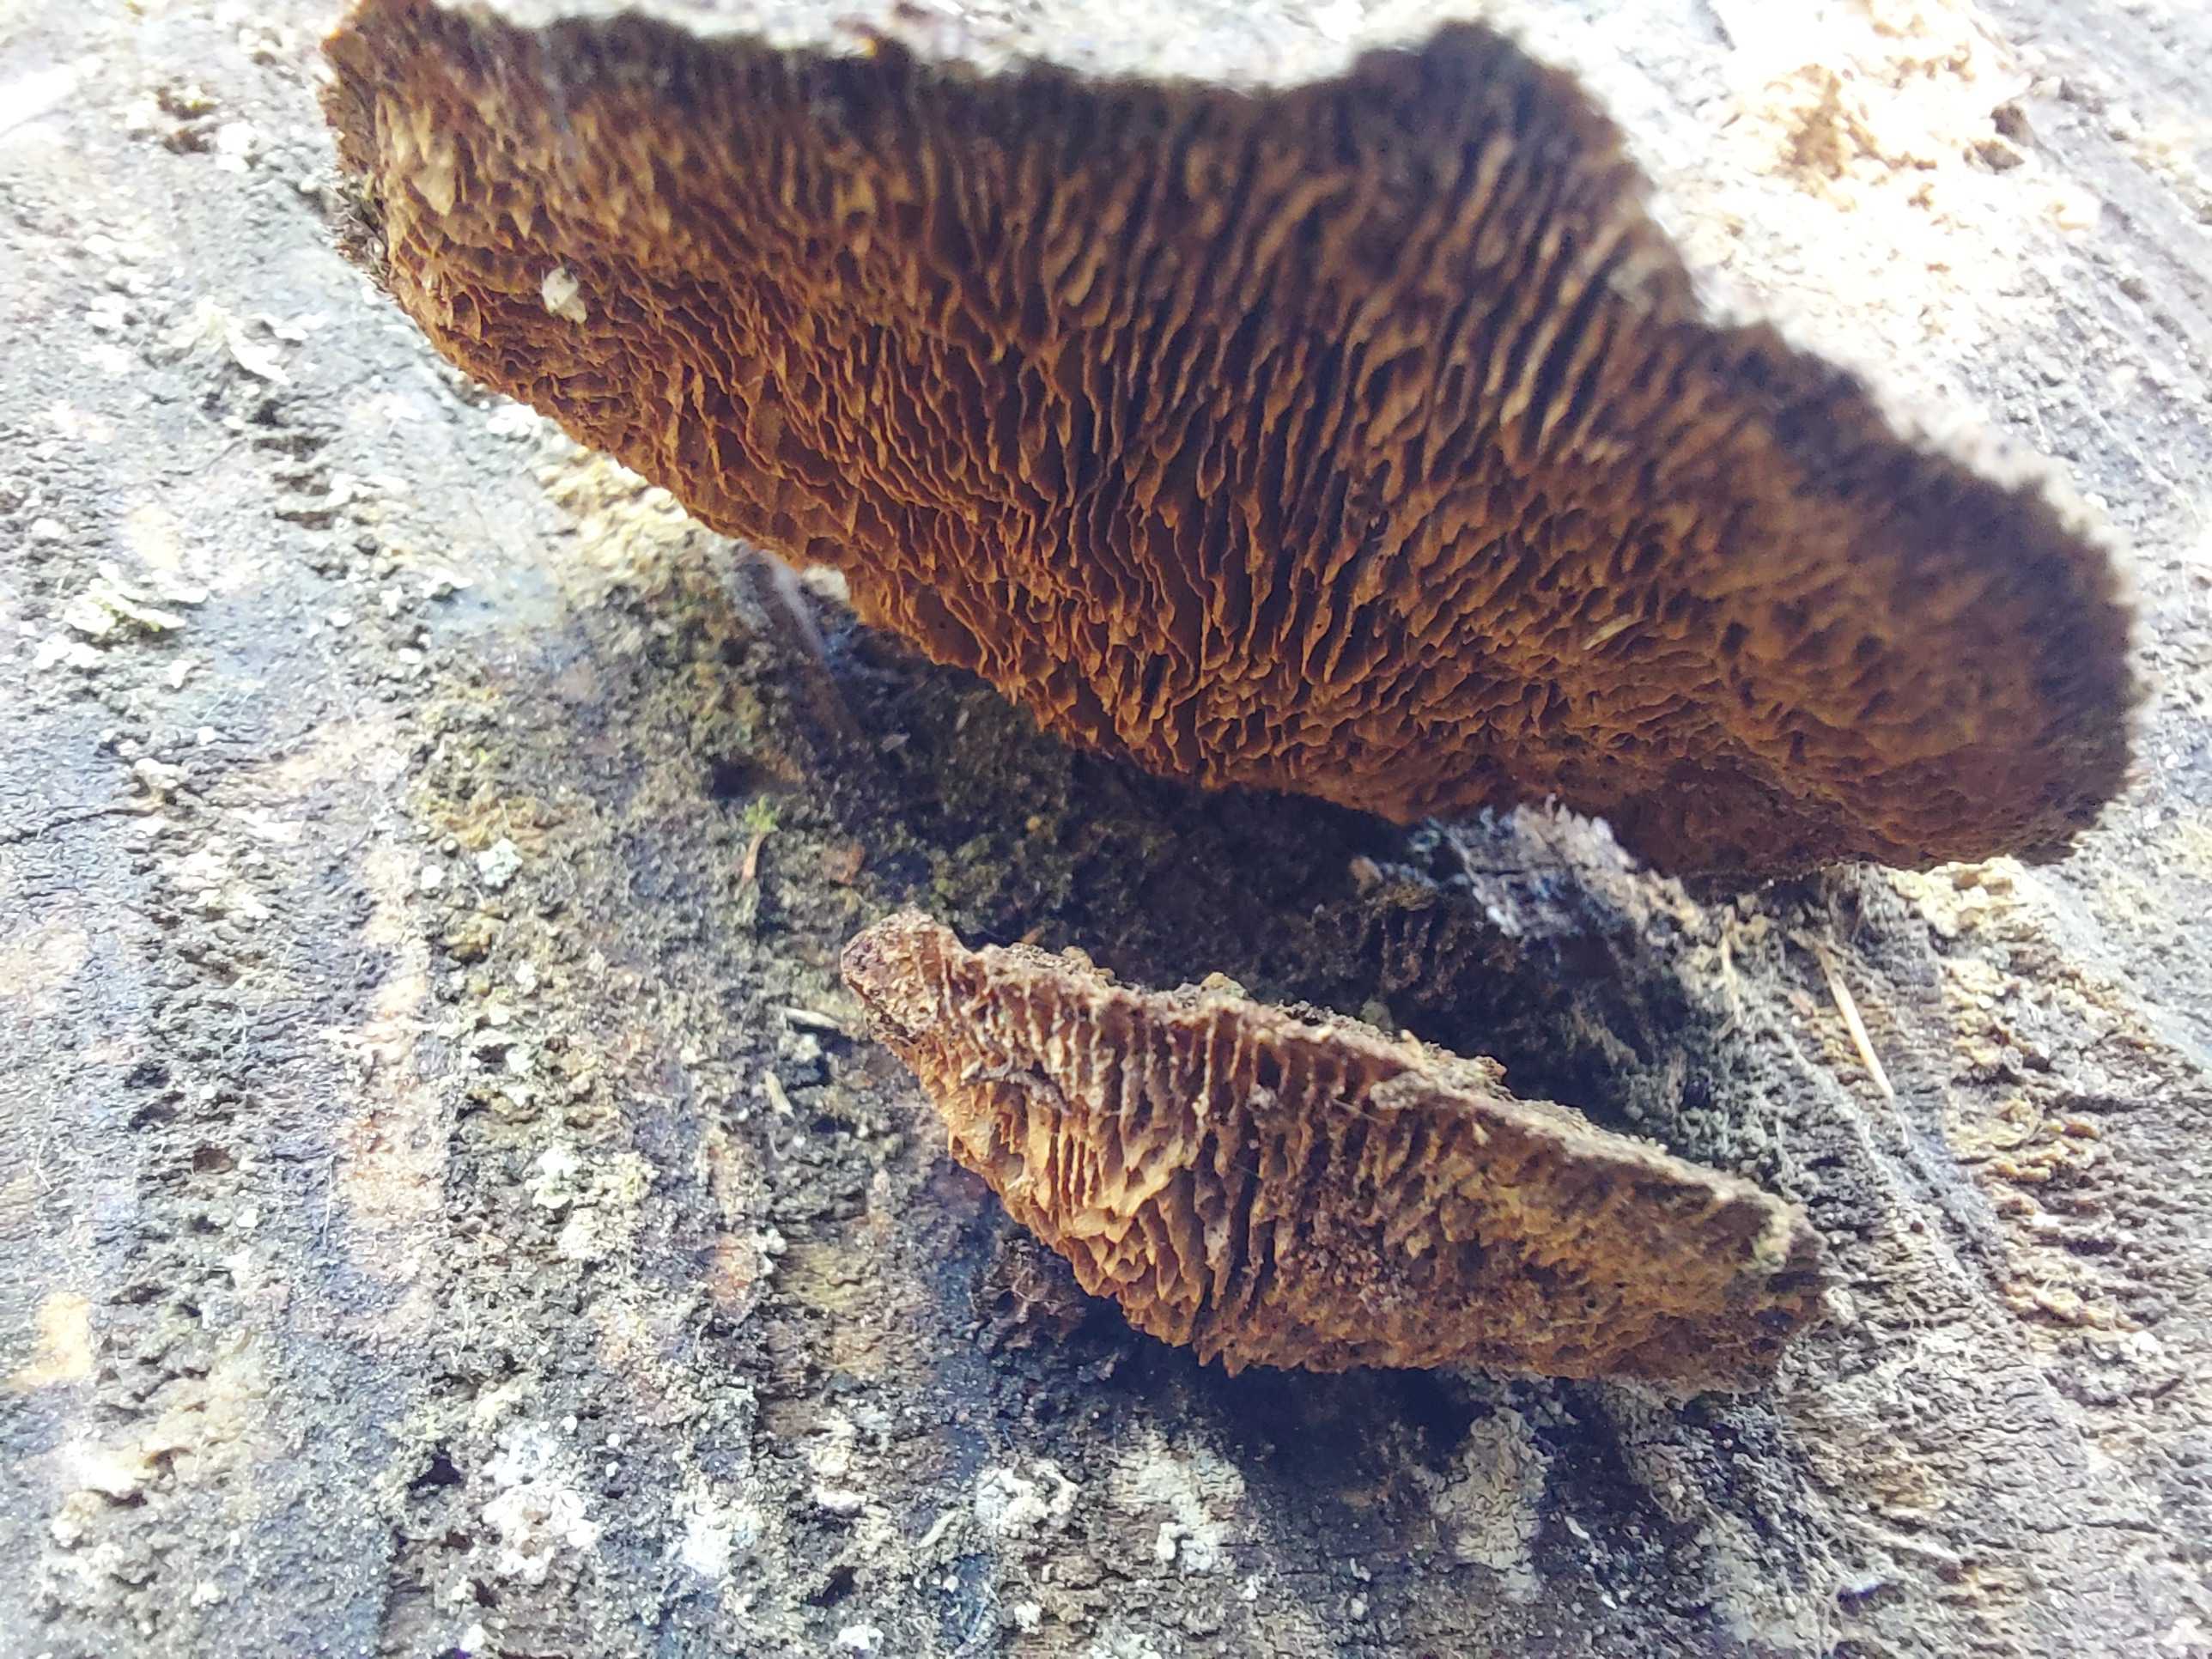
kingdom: Fungi
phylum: Basidiomycota
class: Agaricomycetes
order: Gloeophyllales
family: Gloeophyllaceae
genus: Gloeophyllum
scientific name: Gloeophyllum sepiarium
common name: fyrre-korkhat
